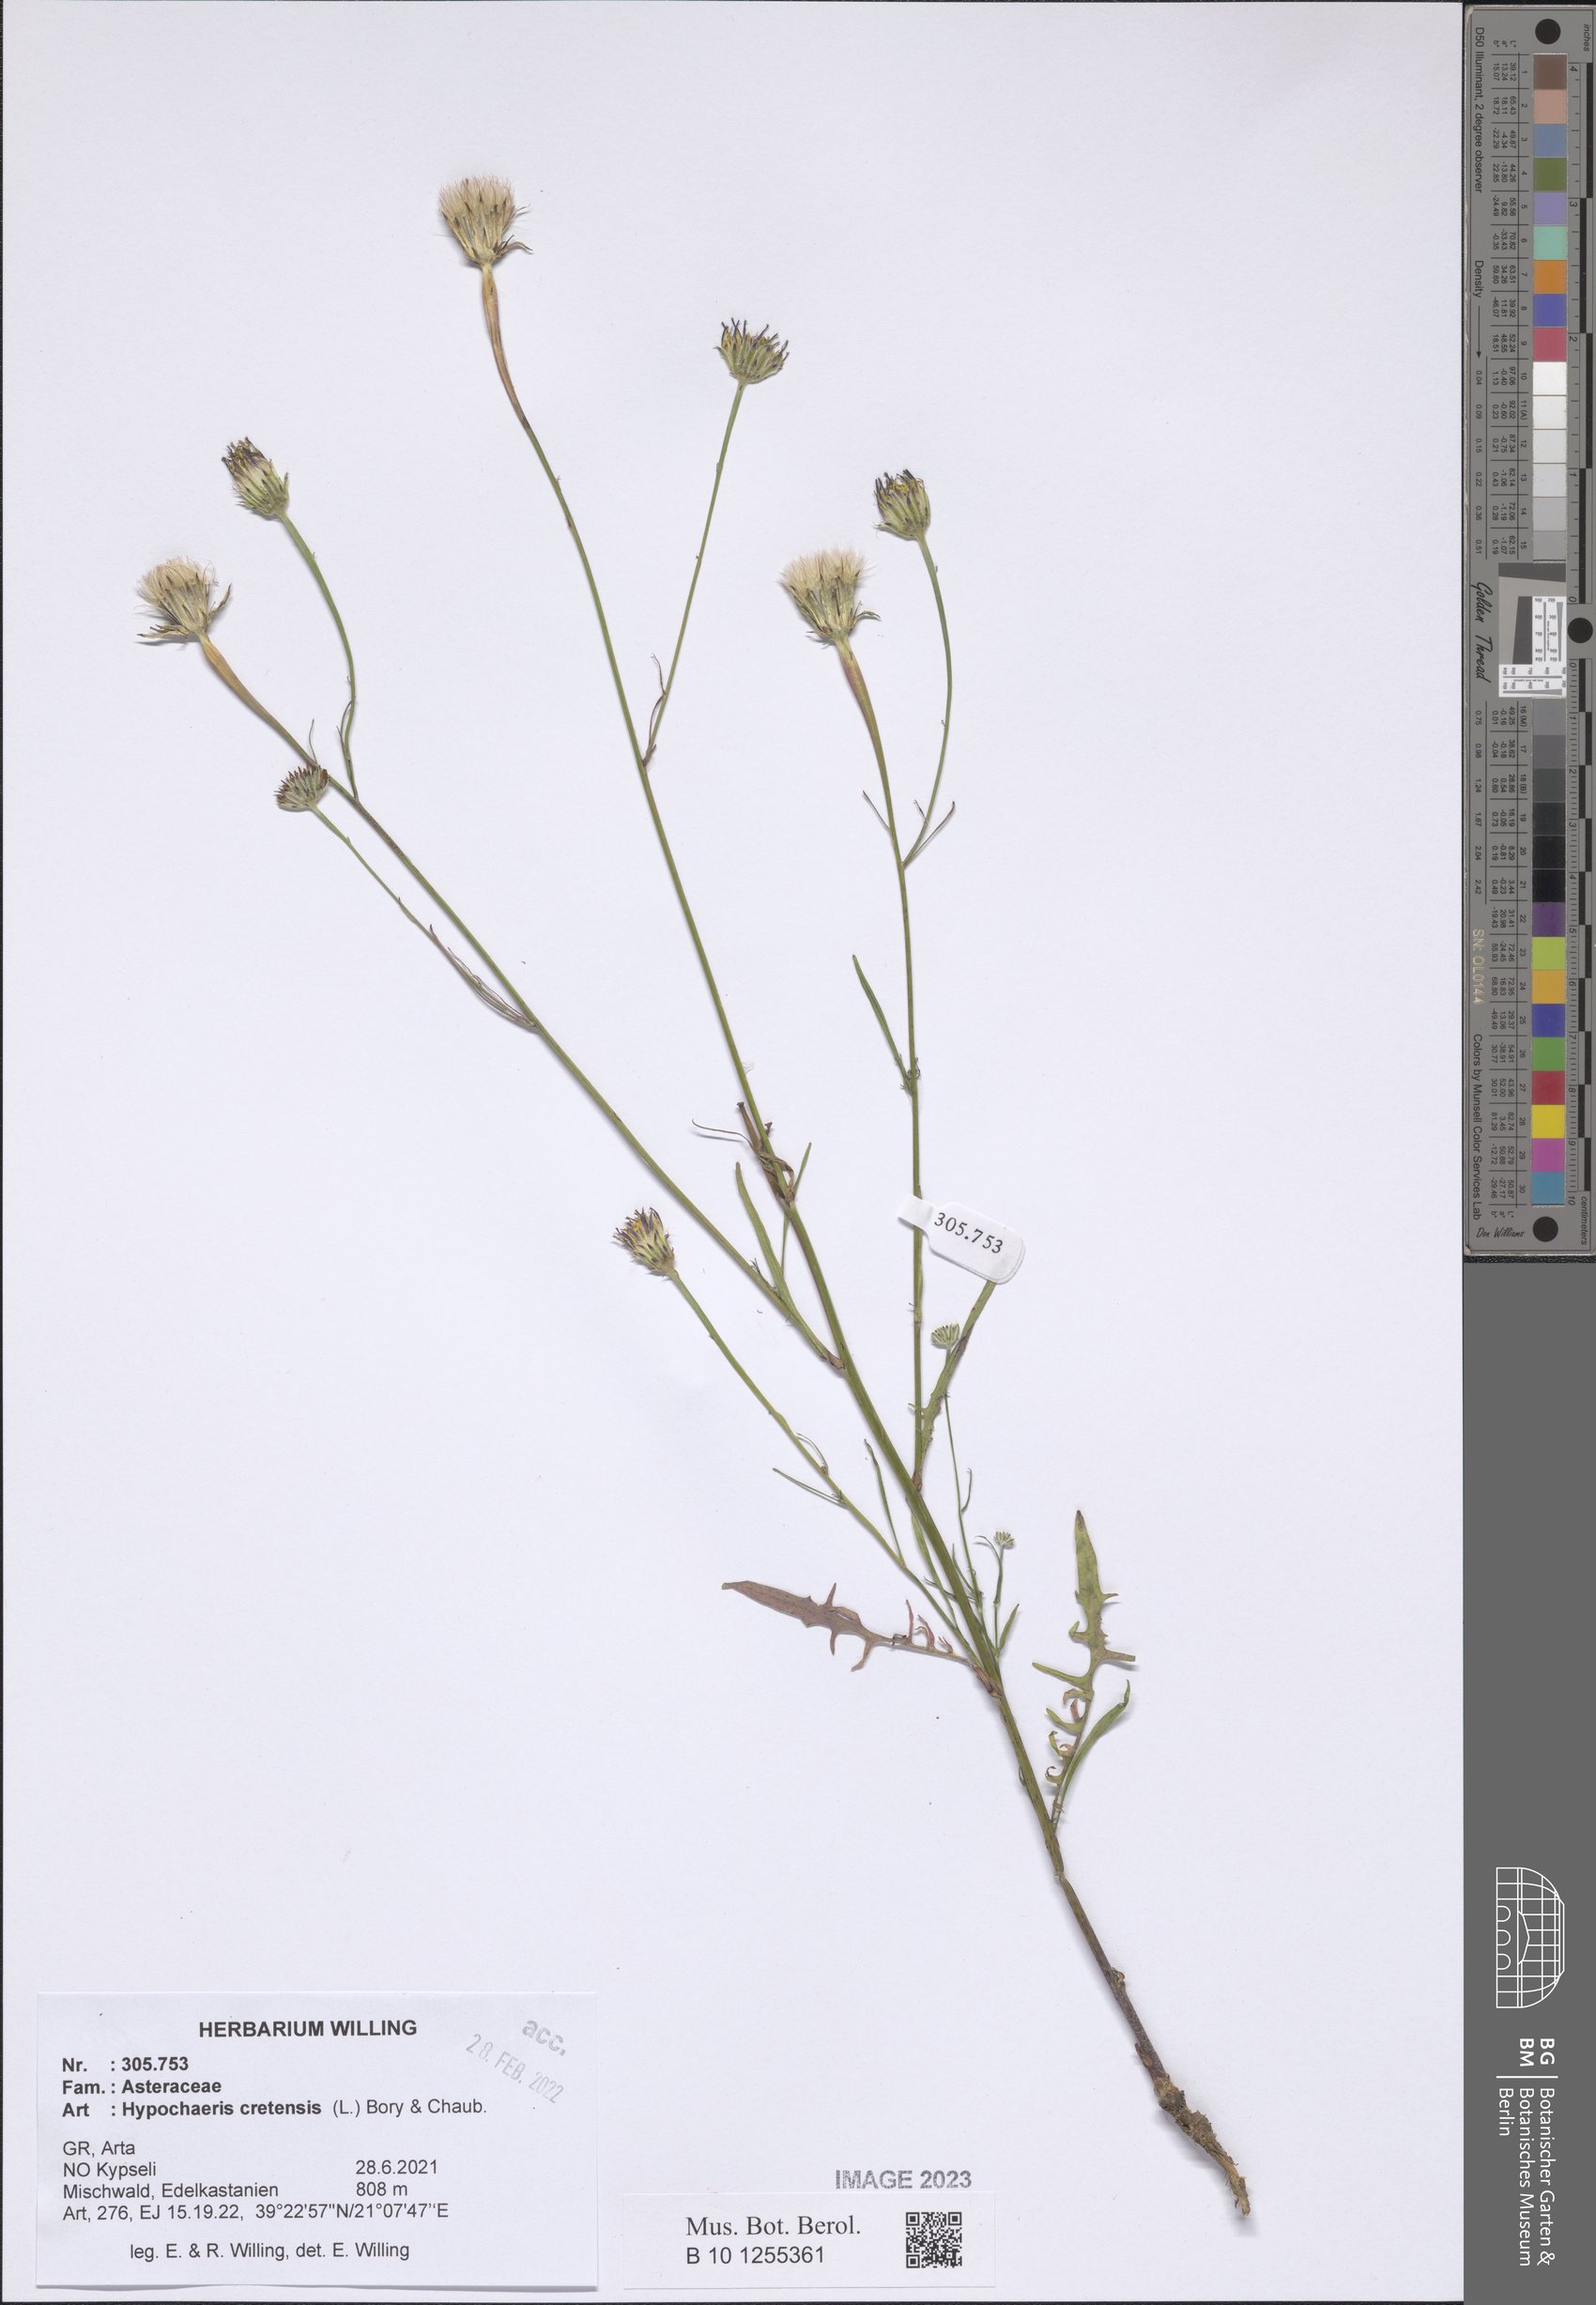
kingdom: Plantae
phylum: Tracheophyta
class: Magnoliopsida
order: Asterales
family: Asteraceae
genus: Hypochaeris
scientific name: Hypochaeris cretensis
